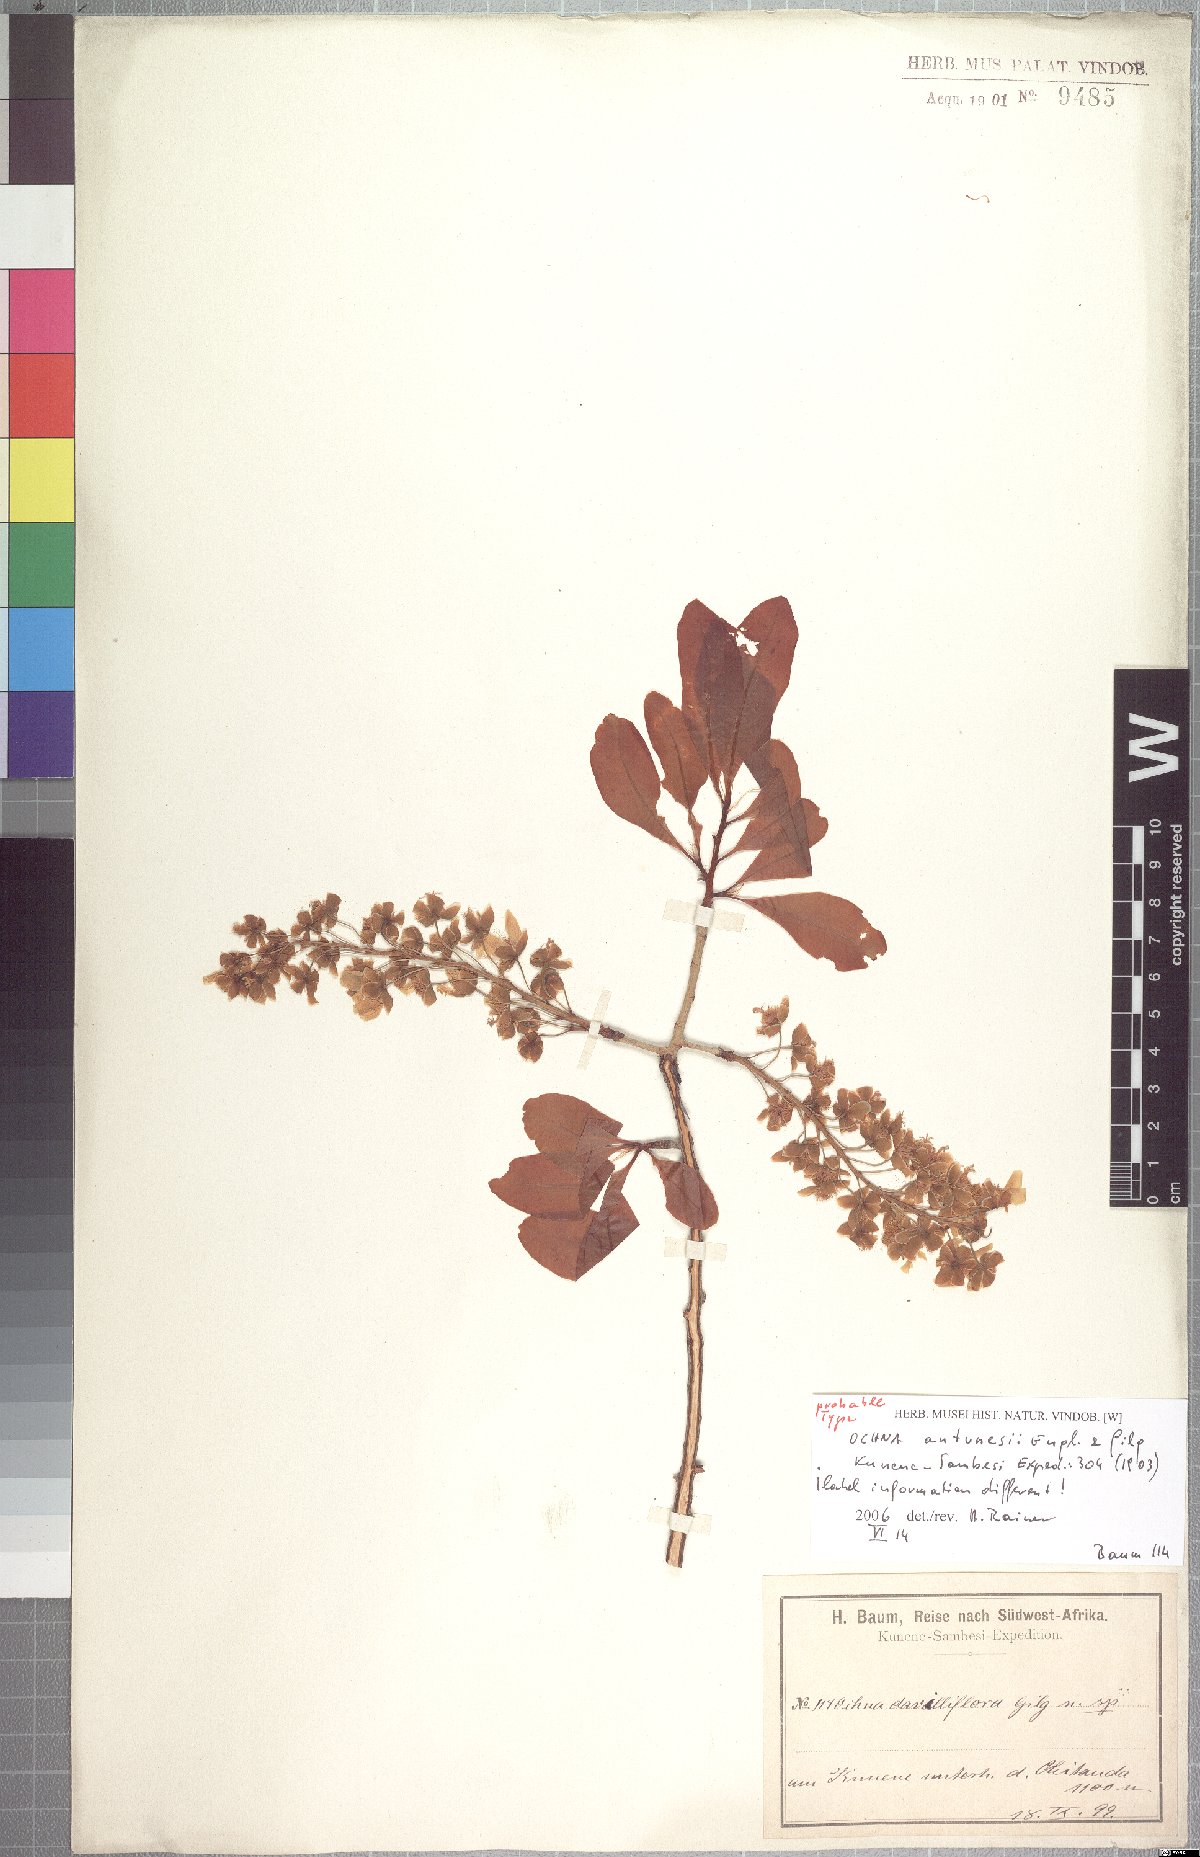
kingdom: Plantae
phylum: Tracheophyta
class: Magnoliopsida
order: Malpighiales
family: Ochnaceae
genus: Ochna
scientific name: Ochna pulchra
